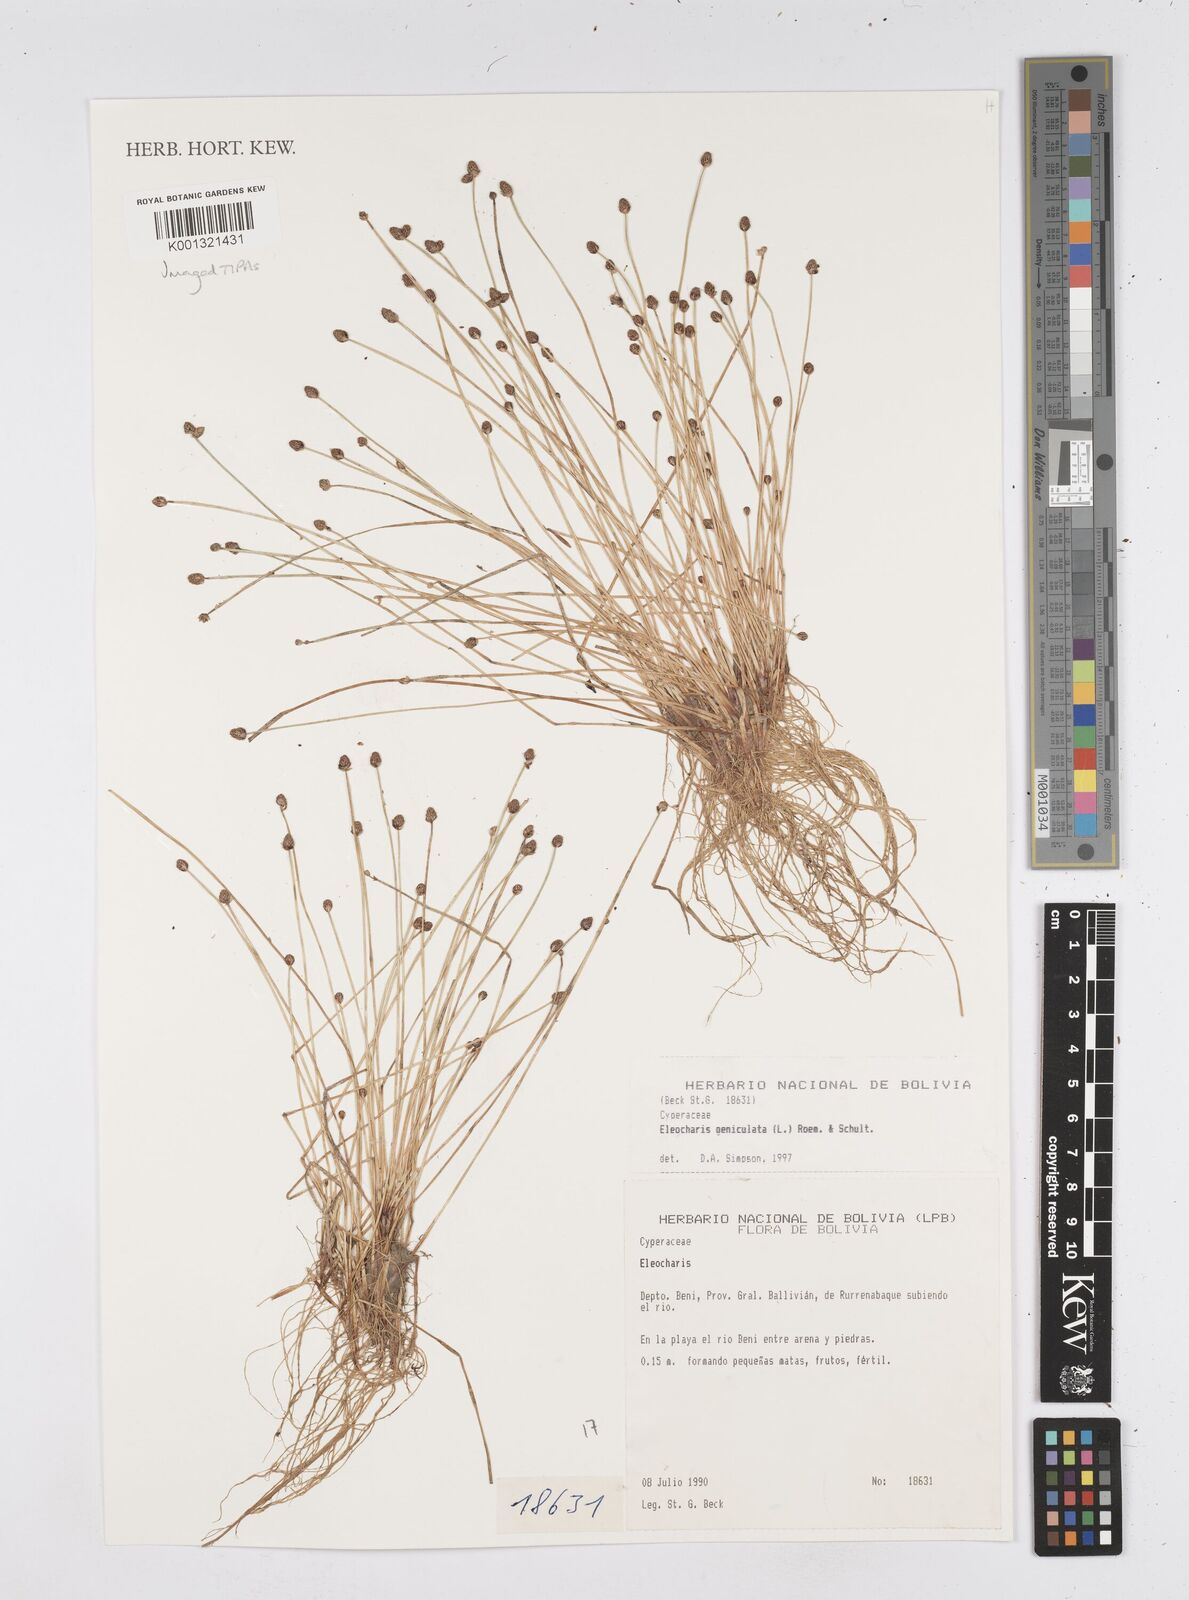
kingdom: Plantae
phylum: Tracheophyta
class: Liliopsida
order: Poales
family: Cyperaceae
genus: Eleocharis
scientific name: Eleocharis geniculata
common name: Canada spikesedge
